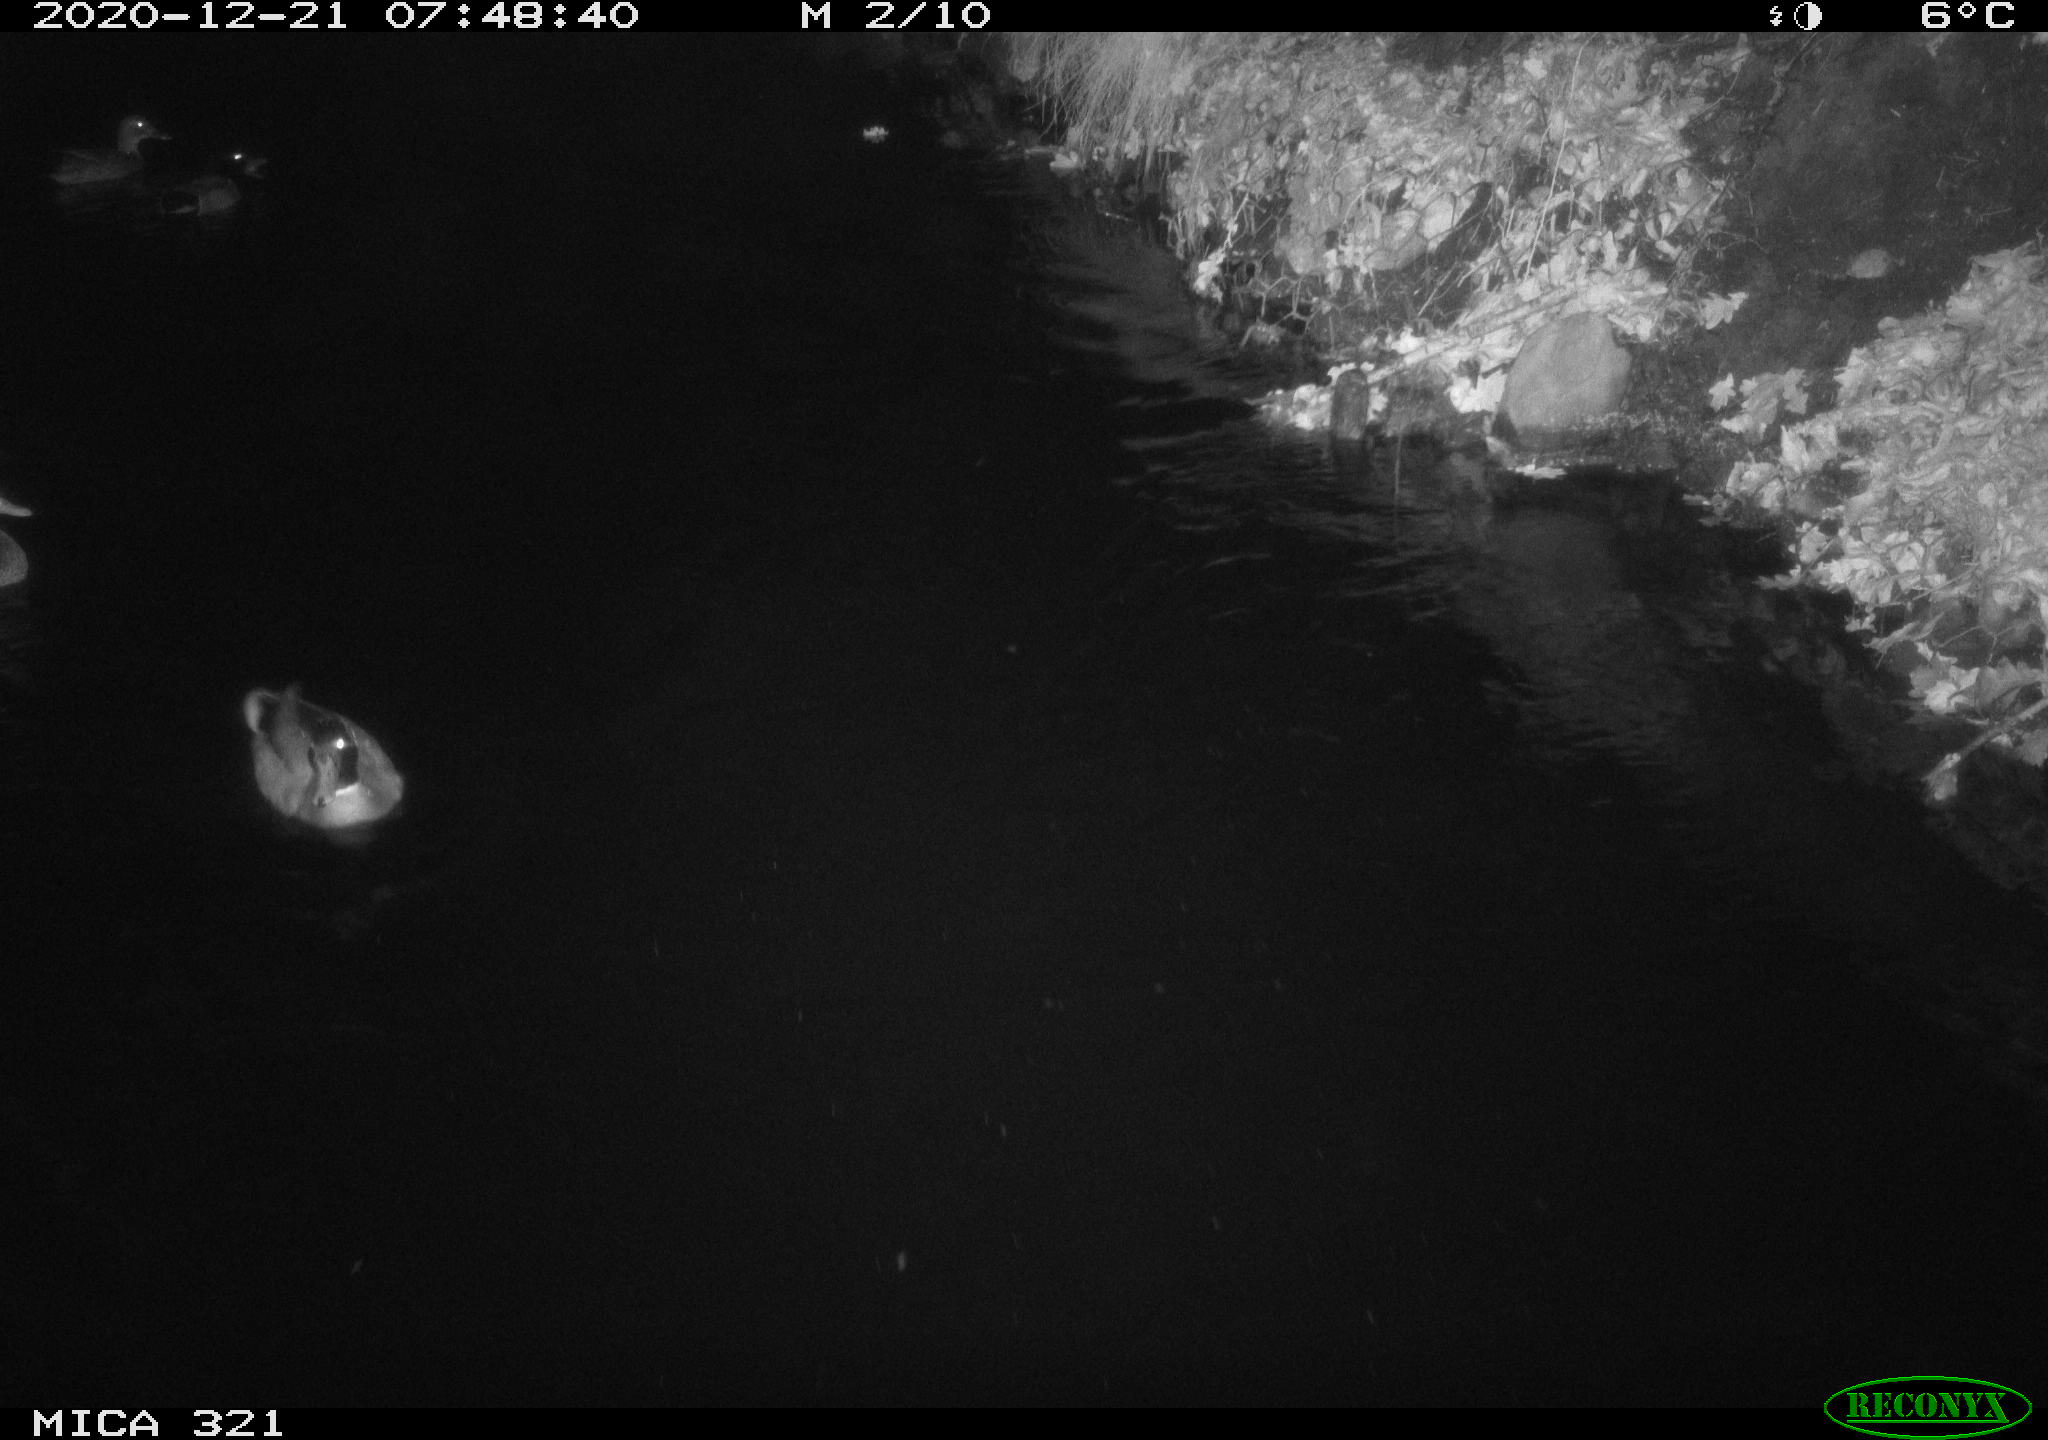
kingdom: Animalia
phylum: Chordata
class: Aves
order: Anseriformes
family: Anatidae
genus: Anas
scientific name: Anas platyrhynchos
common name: Mallard
